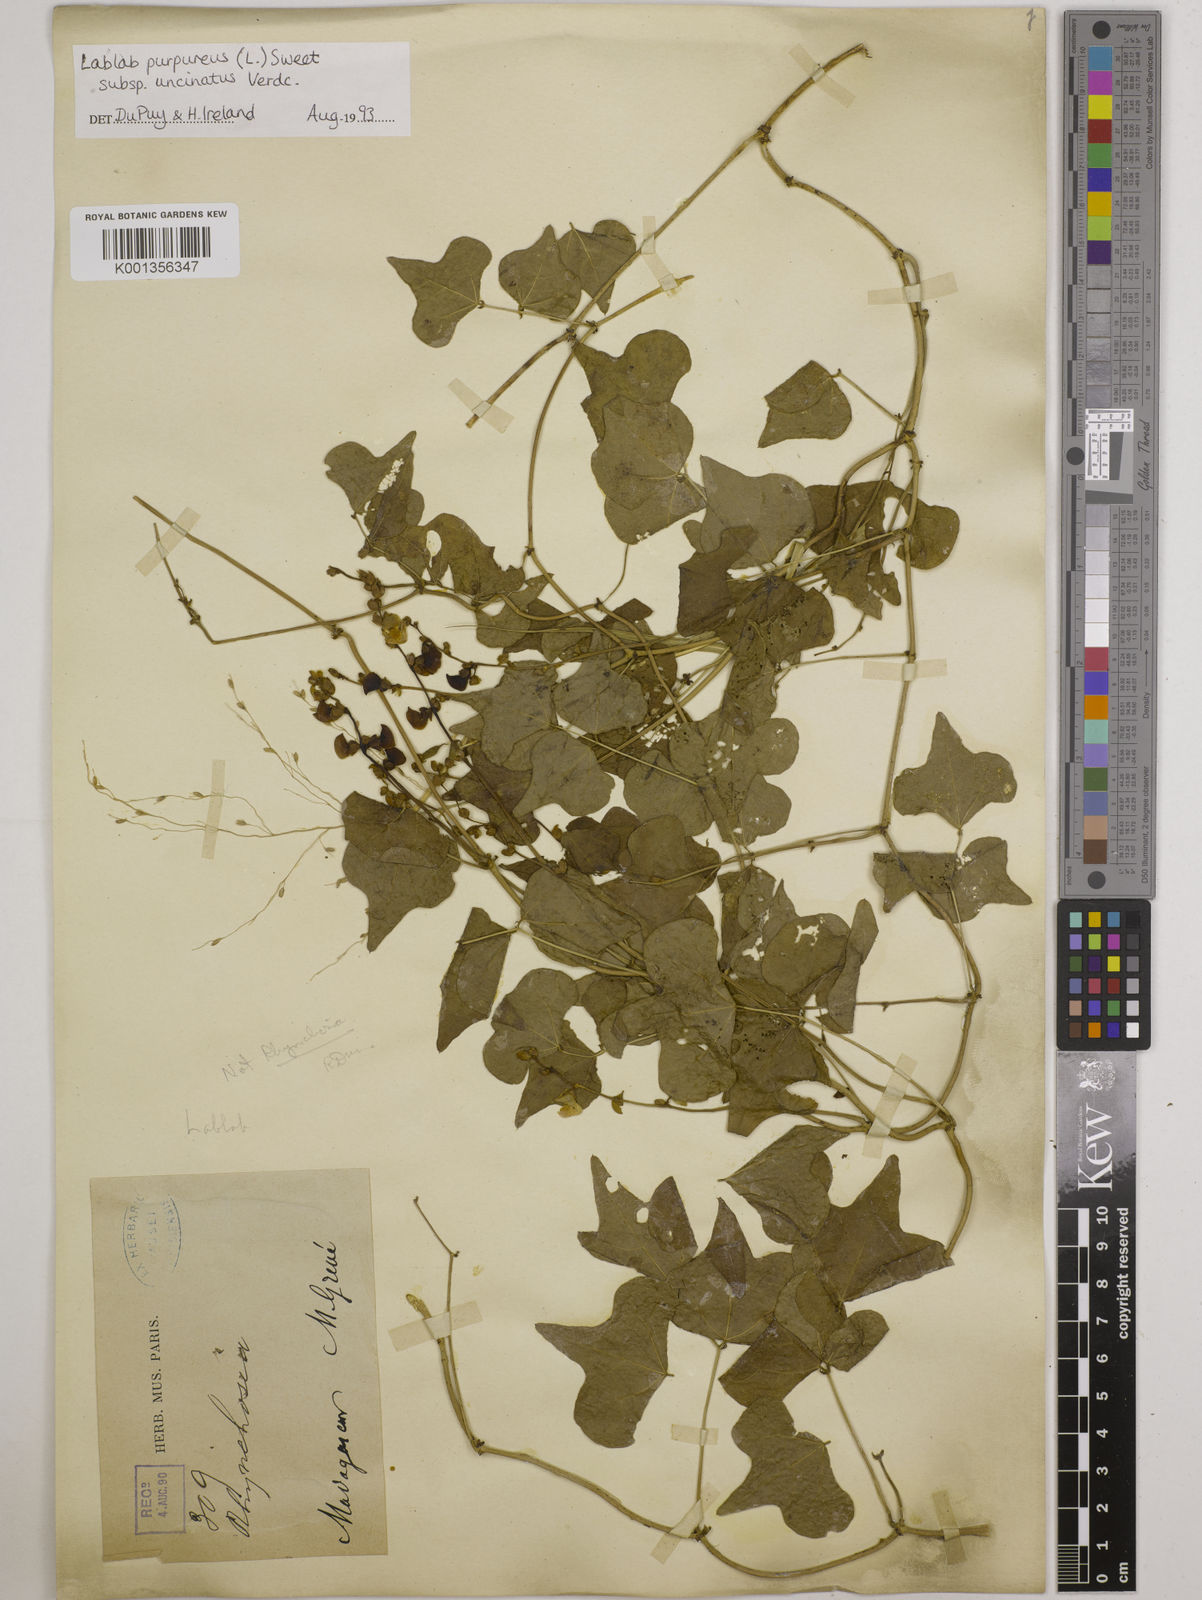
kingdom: Plantae
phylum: Tracheophyta
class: Magnoliopsida
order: Fabales
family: Fabaceae
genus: Lablab
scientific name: Lablab purpureus
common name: Lablab-bean
